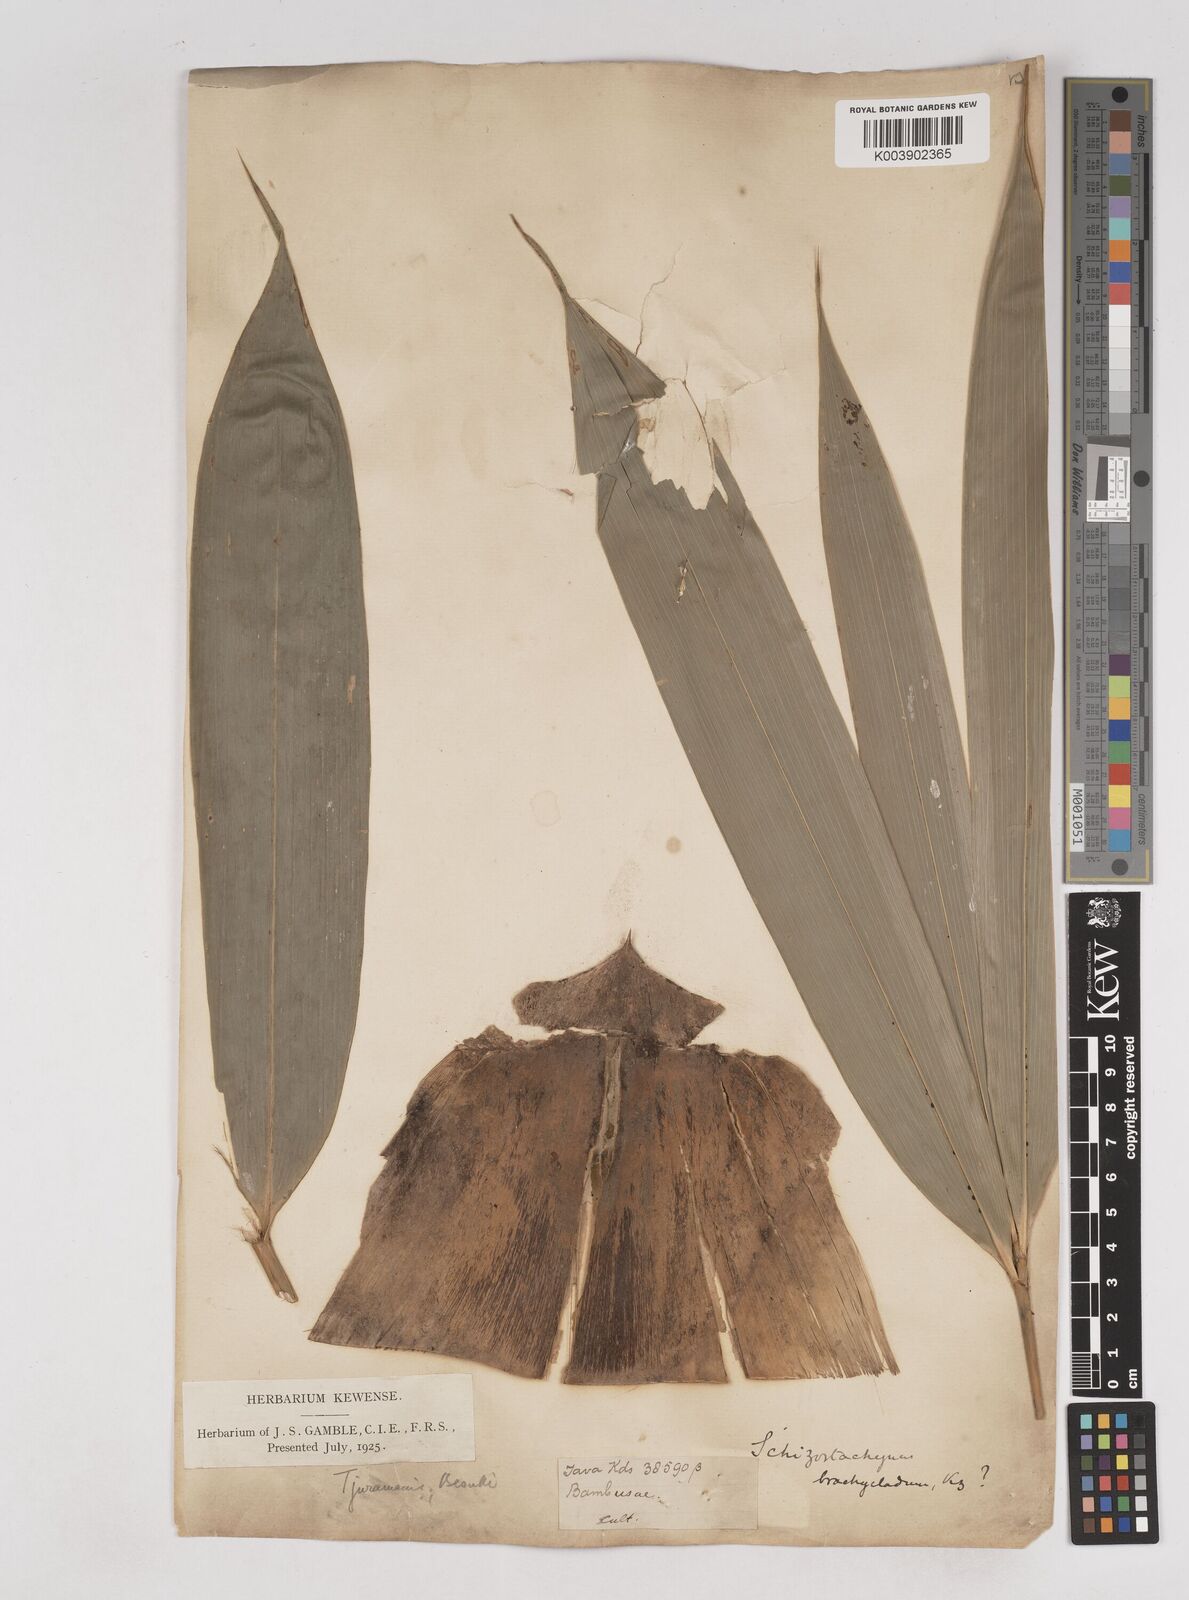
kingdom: Plantae
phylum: Tracheophyta
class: Liliopsida
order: Poales
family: Poaceae
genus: Schizostachyum
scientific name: Schizostachyum zollingeri
